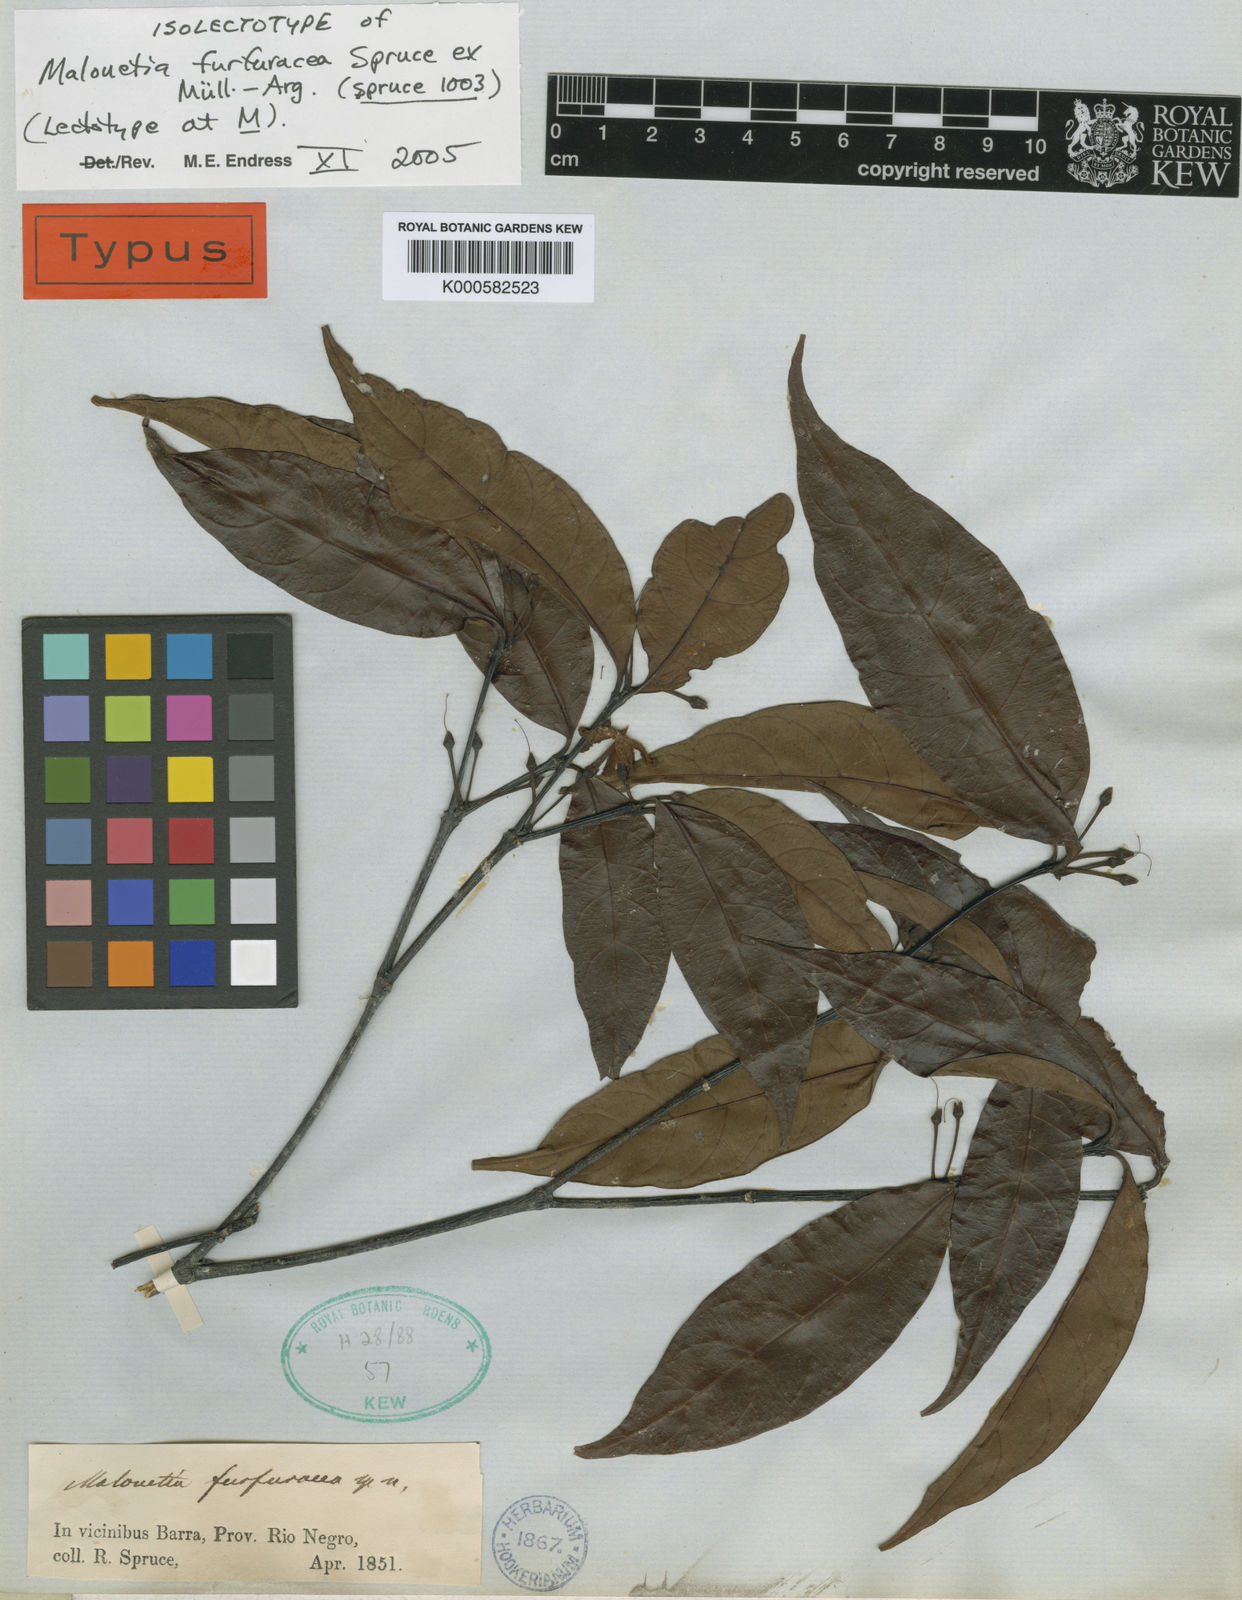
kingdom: Plantae
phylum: Tracheophyta
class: Magnoliopsida
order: Gentianales
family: Apocynaceae
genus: Malouetia
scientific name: Malouetia
